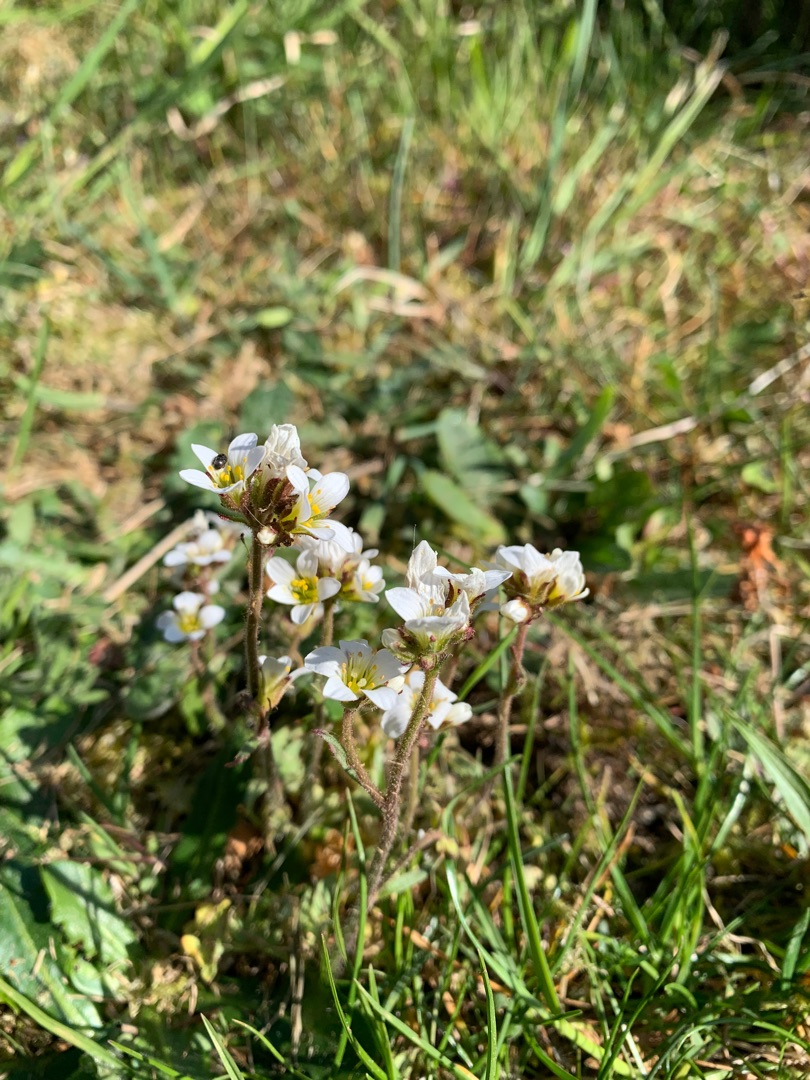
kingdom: Plantae
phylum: Tracheophyta
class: Magnoliopsida
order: Saxifragales
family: Saxifragaceae
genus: Saxifraga
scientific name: Saxifraga granulata
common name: Kornet stenbræk
